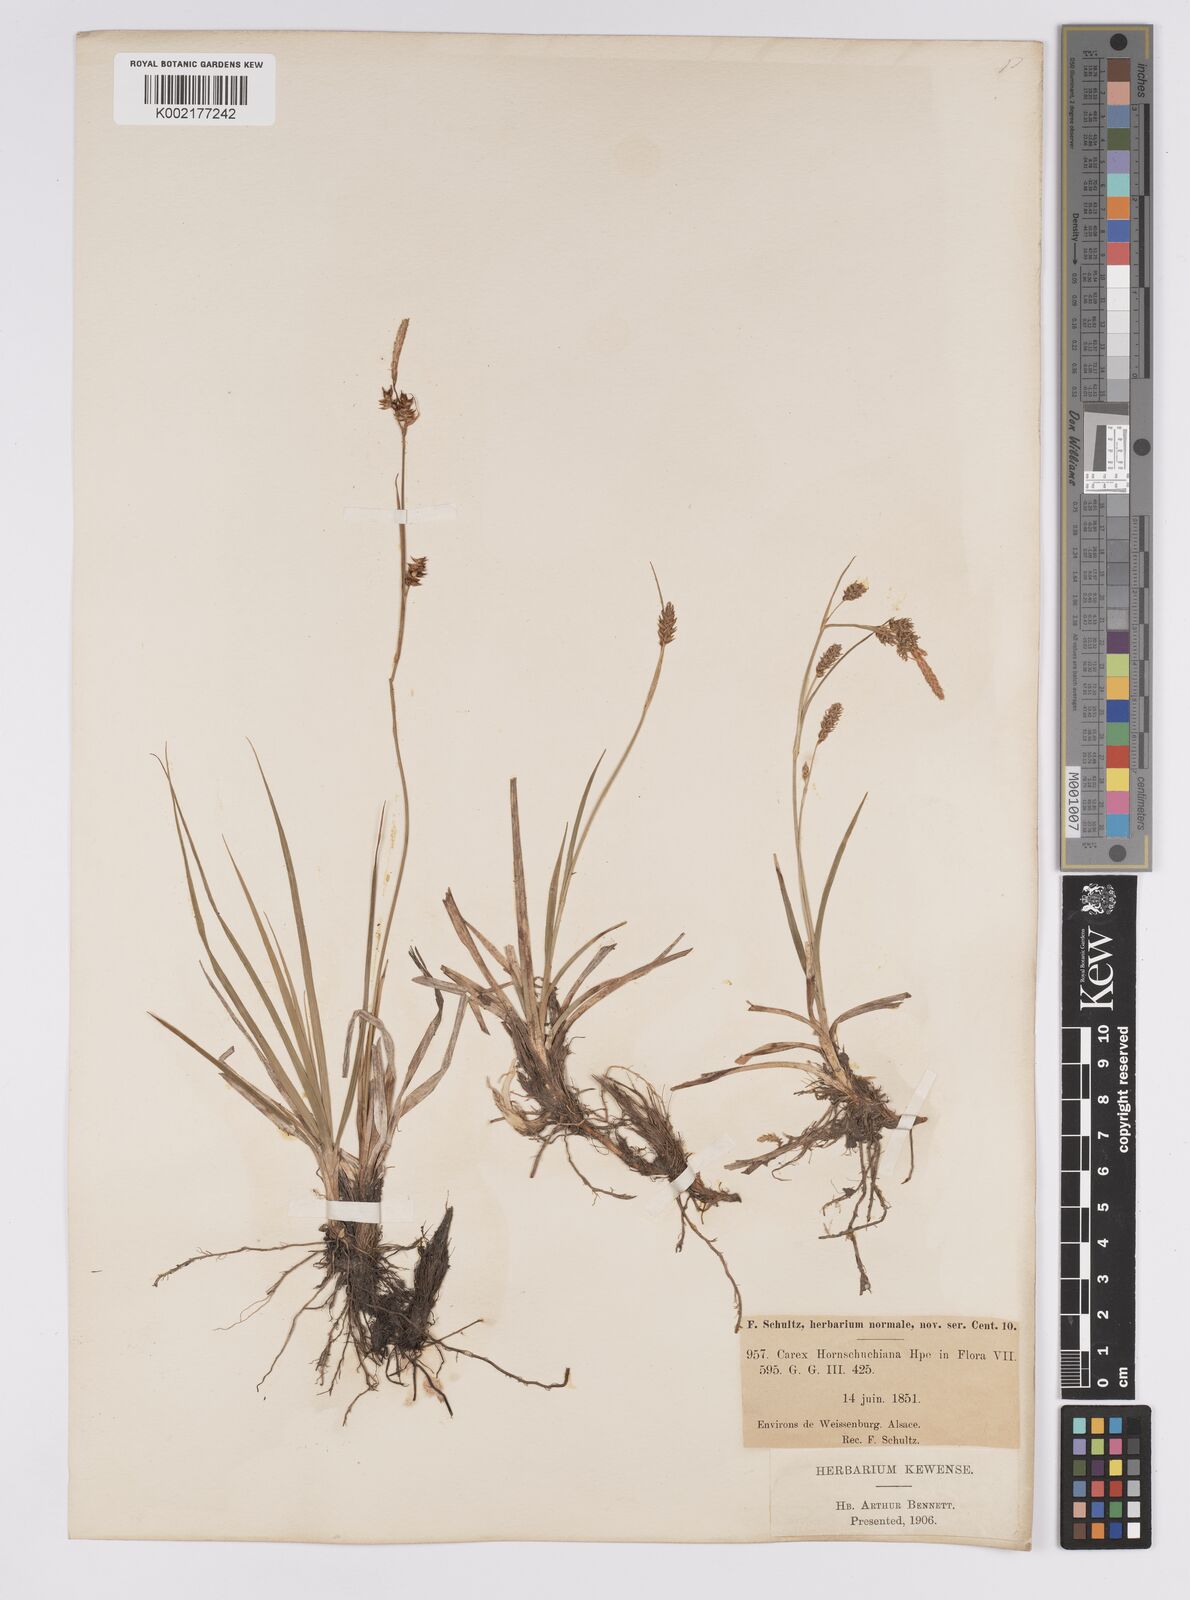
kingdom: Plantae
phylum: Tracheophyta
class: Liliopsida
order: Poales
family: Cyperaceae
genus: Carex
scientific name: Carex hostiana
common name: Tawny sedge
